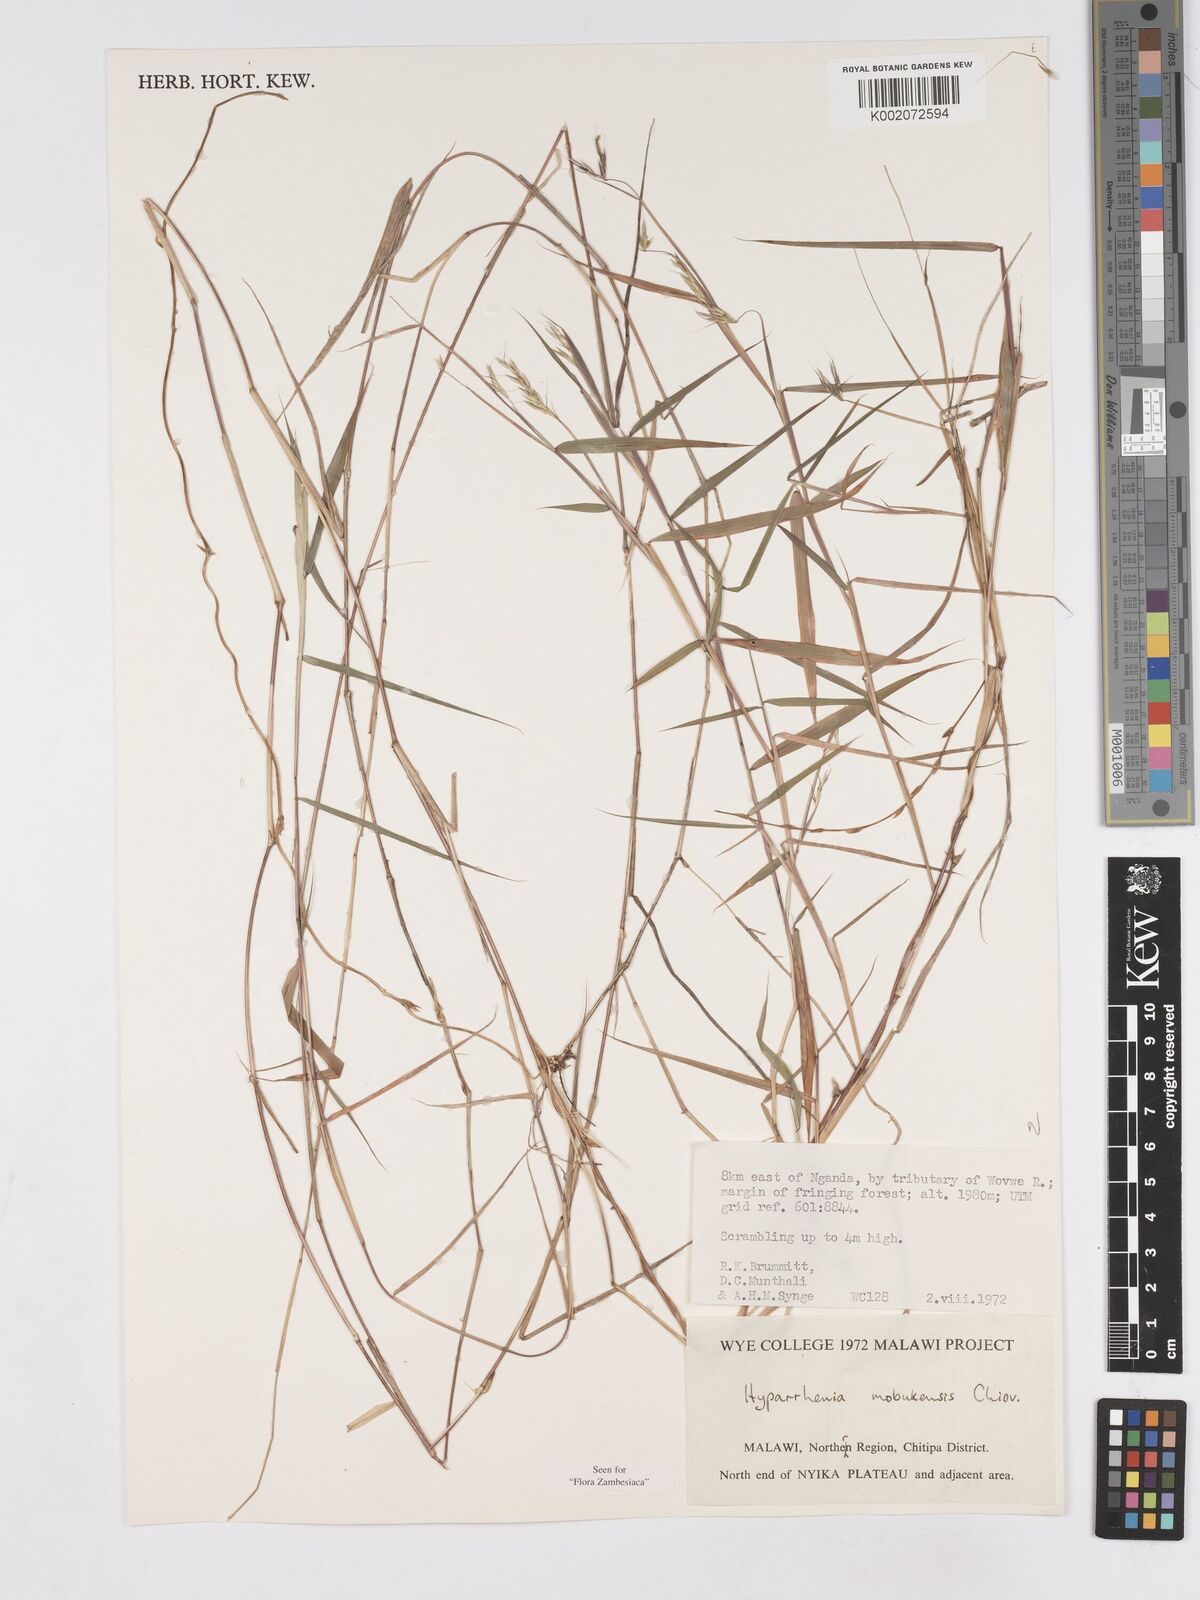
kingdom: Plantae
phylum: Tracheophyta
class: Liliopsida
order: Poales
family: Poaceae
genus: Hyparrhenia
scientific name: Hyparrhenia mobukensis
